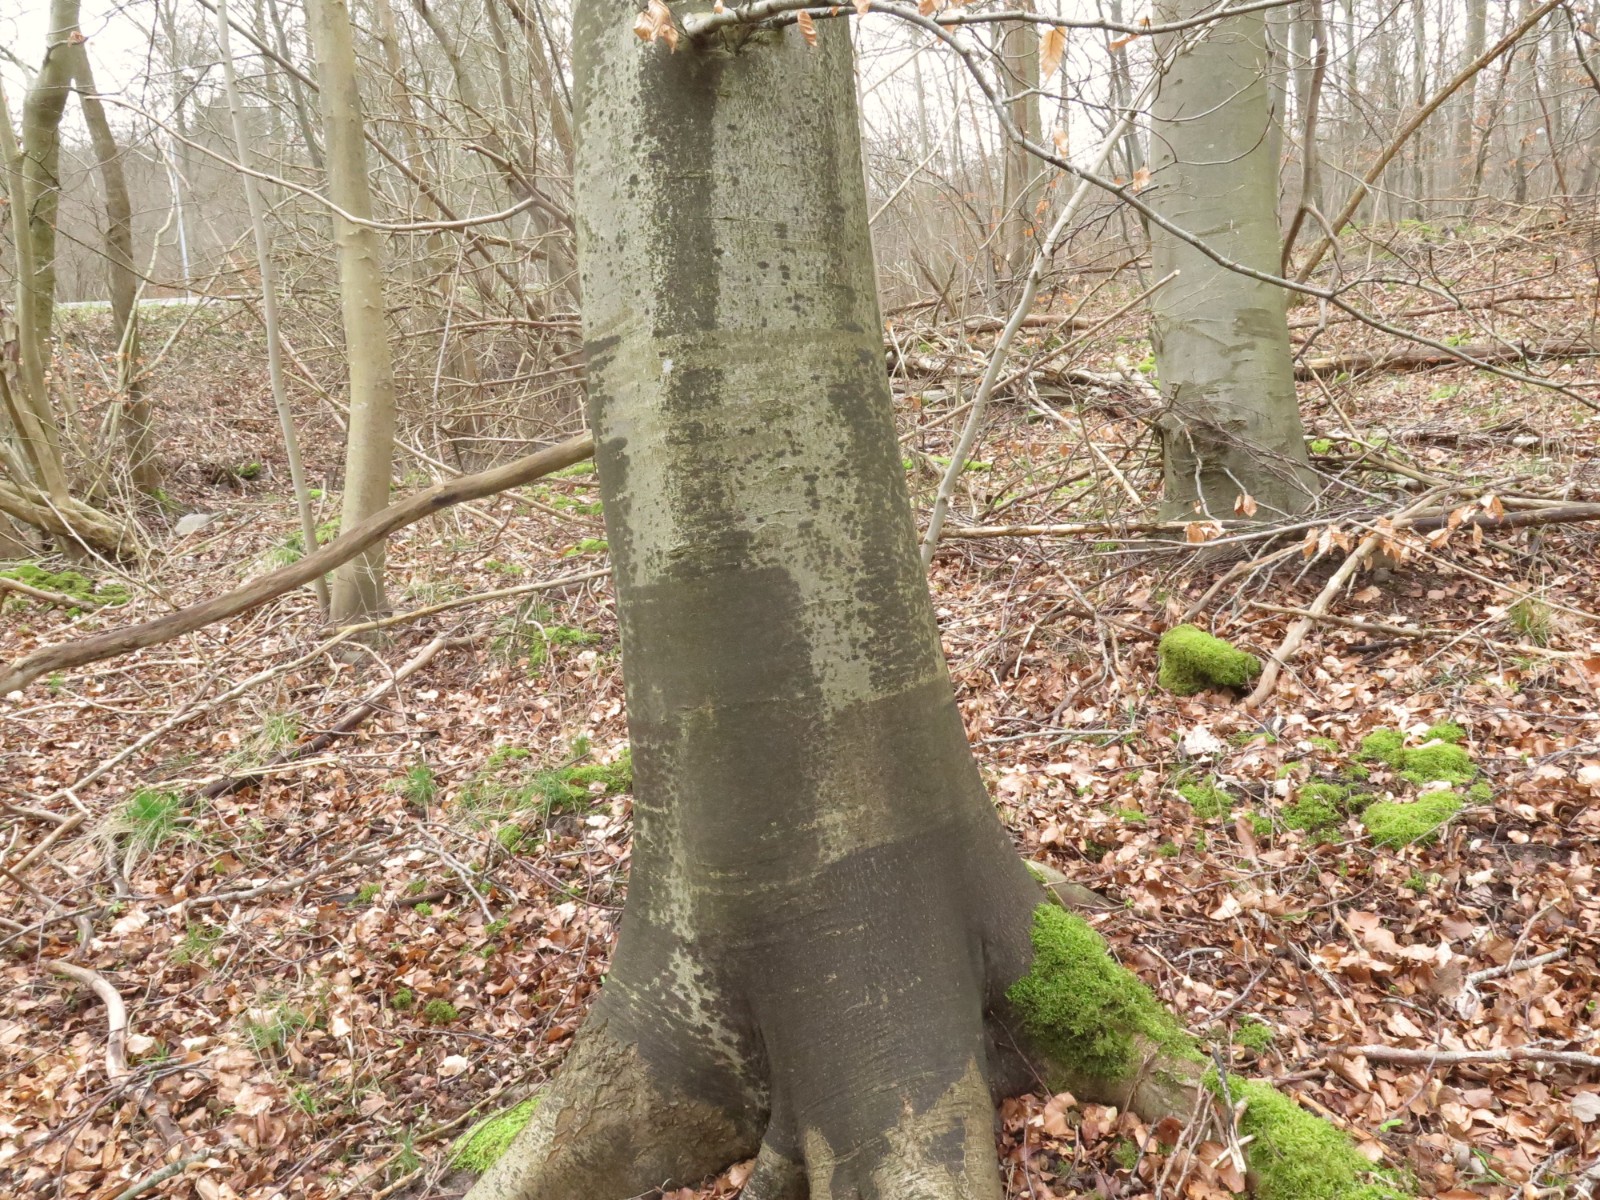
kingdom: Fungi
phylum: Ascomycota
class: Leotiomycetes
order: Rhytismatales
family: Ascodichaenaceae
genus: Ascodichaena
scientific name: Ascodichaena rugosa
